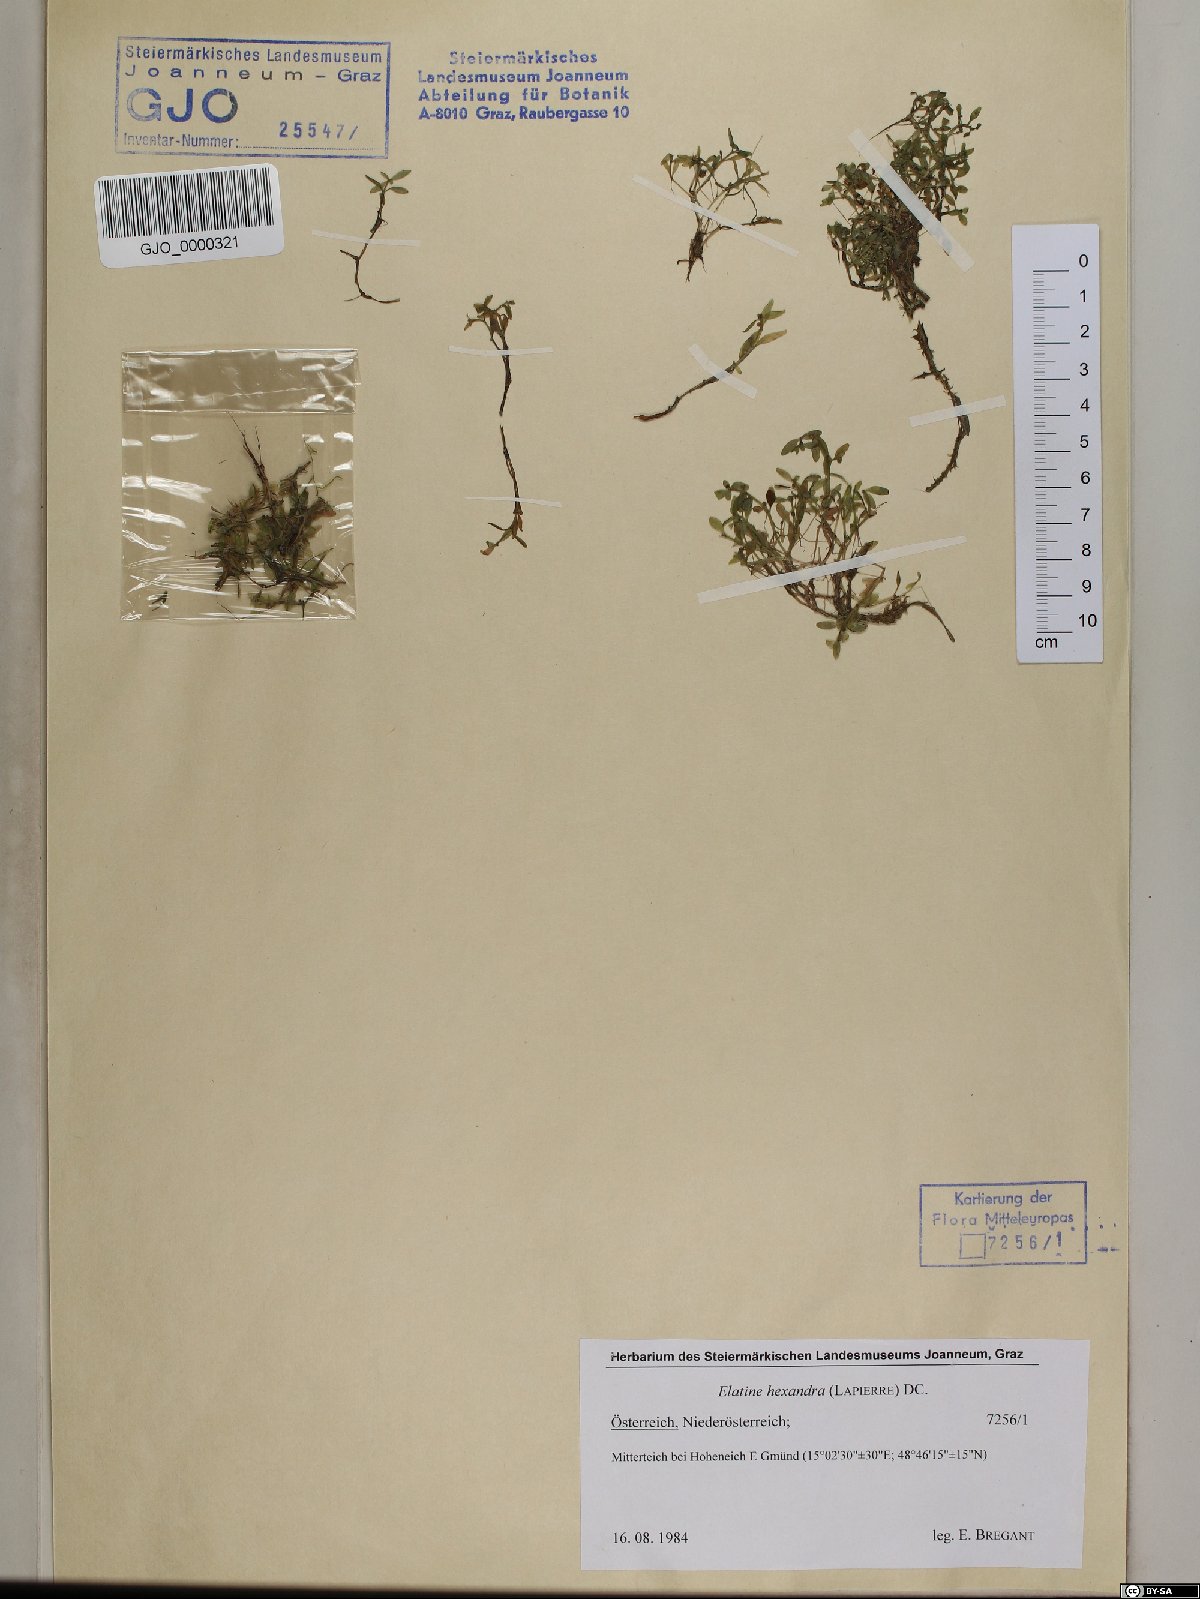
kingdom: Plantae
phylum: Tracheophyta
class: Magnoliopsida
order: Malpighiales
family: Elatinaceae
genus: Elatine
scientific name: Elatine hexandra
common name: Six-stamened waterwort
